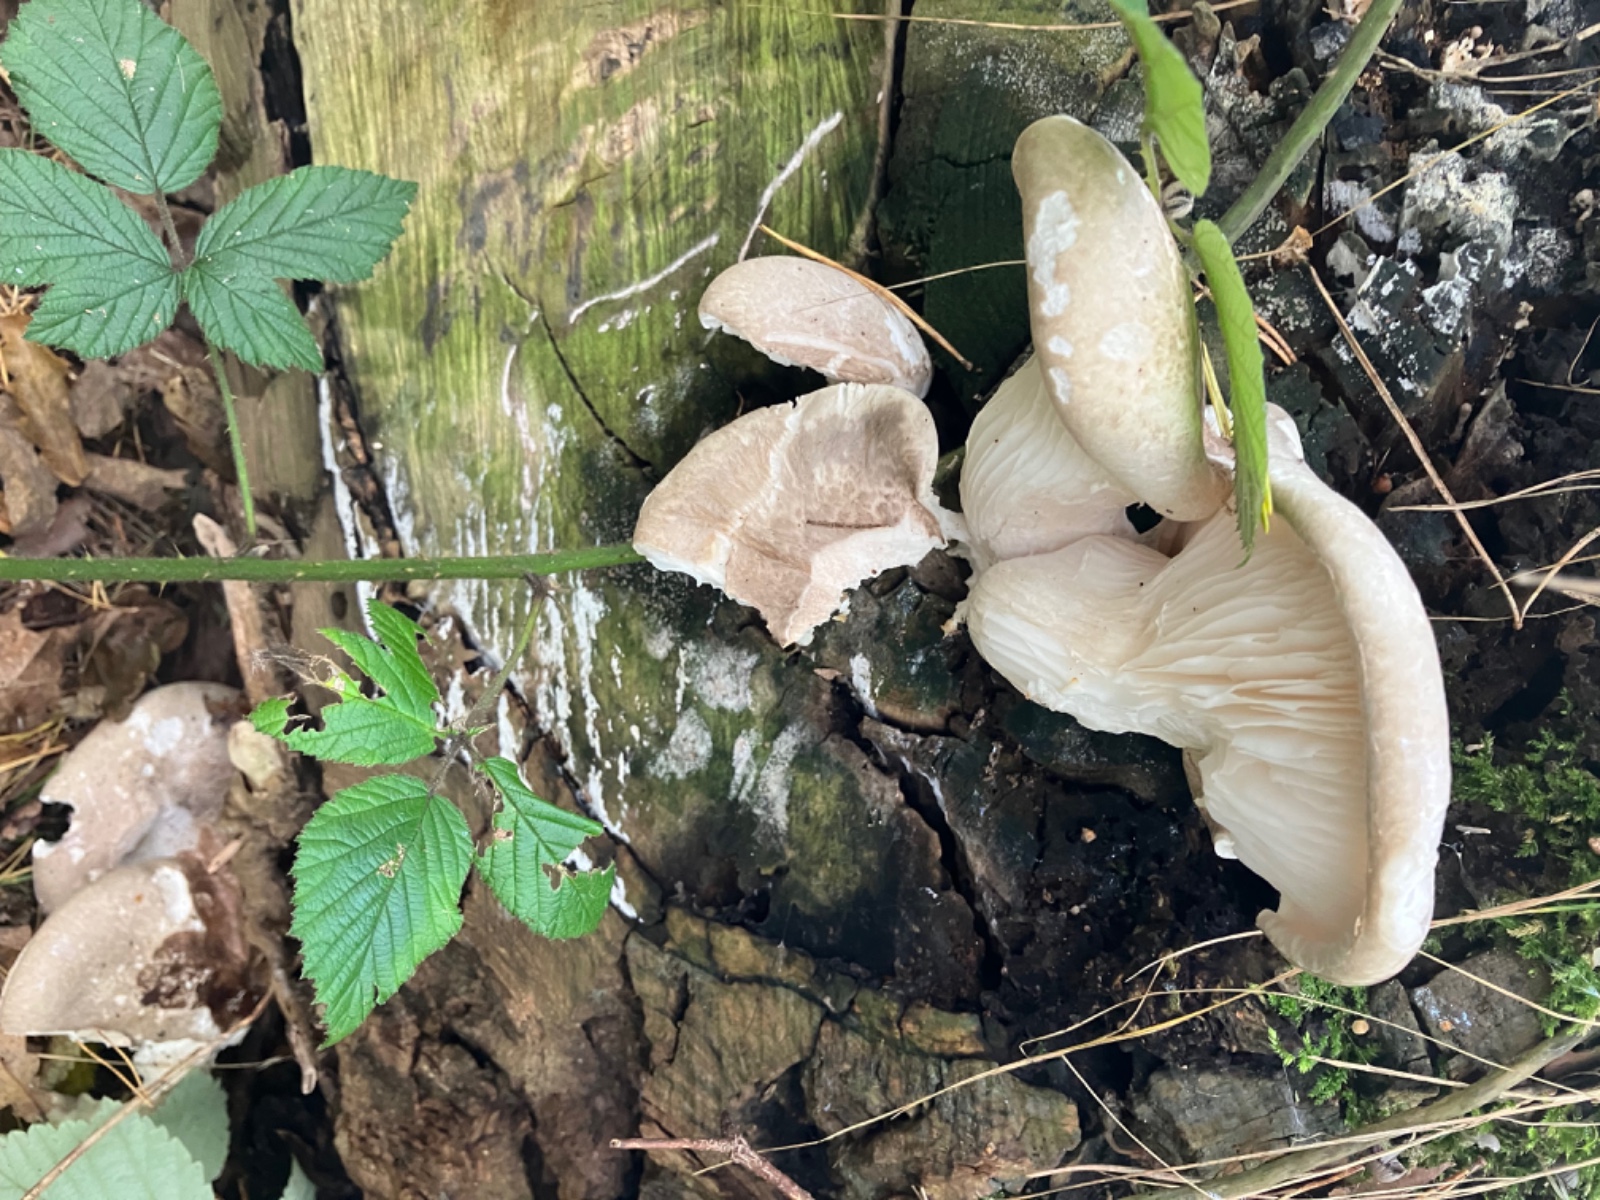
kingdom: Fungi
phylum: Basidiomycota
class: Agaricomycetes
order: Agaricales
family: Pleurotaceae
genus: Pleurotus
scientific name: Pleurotus ostreatus
